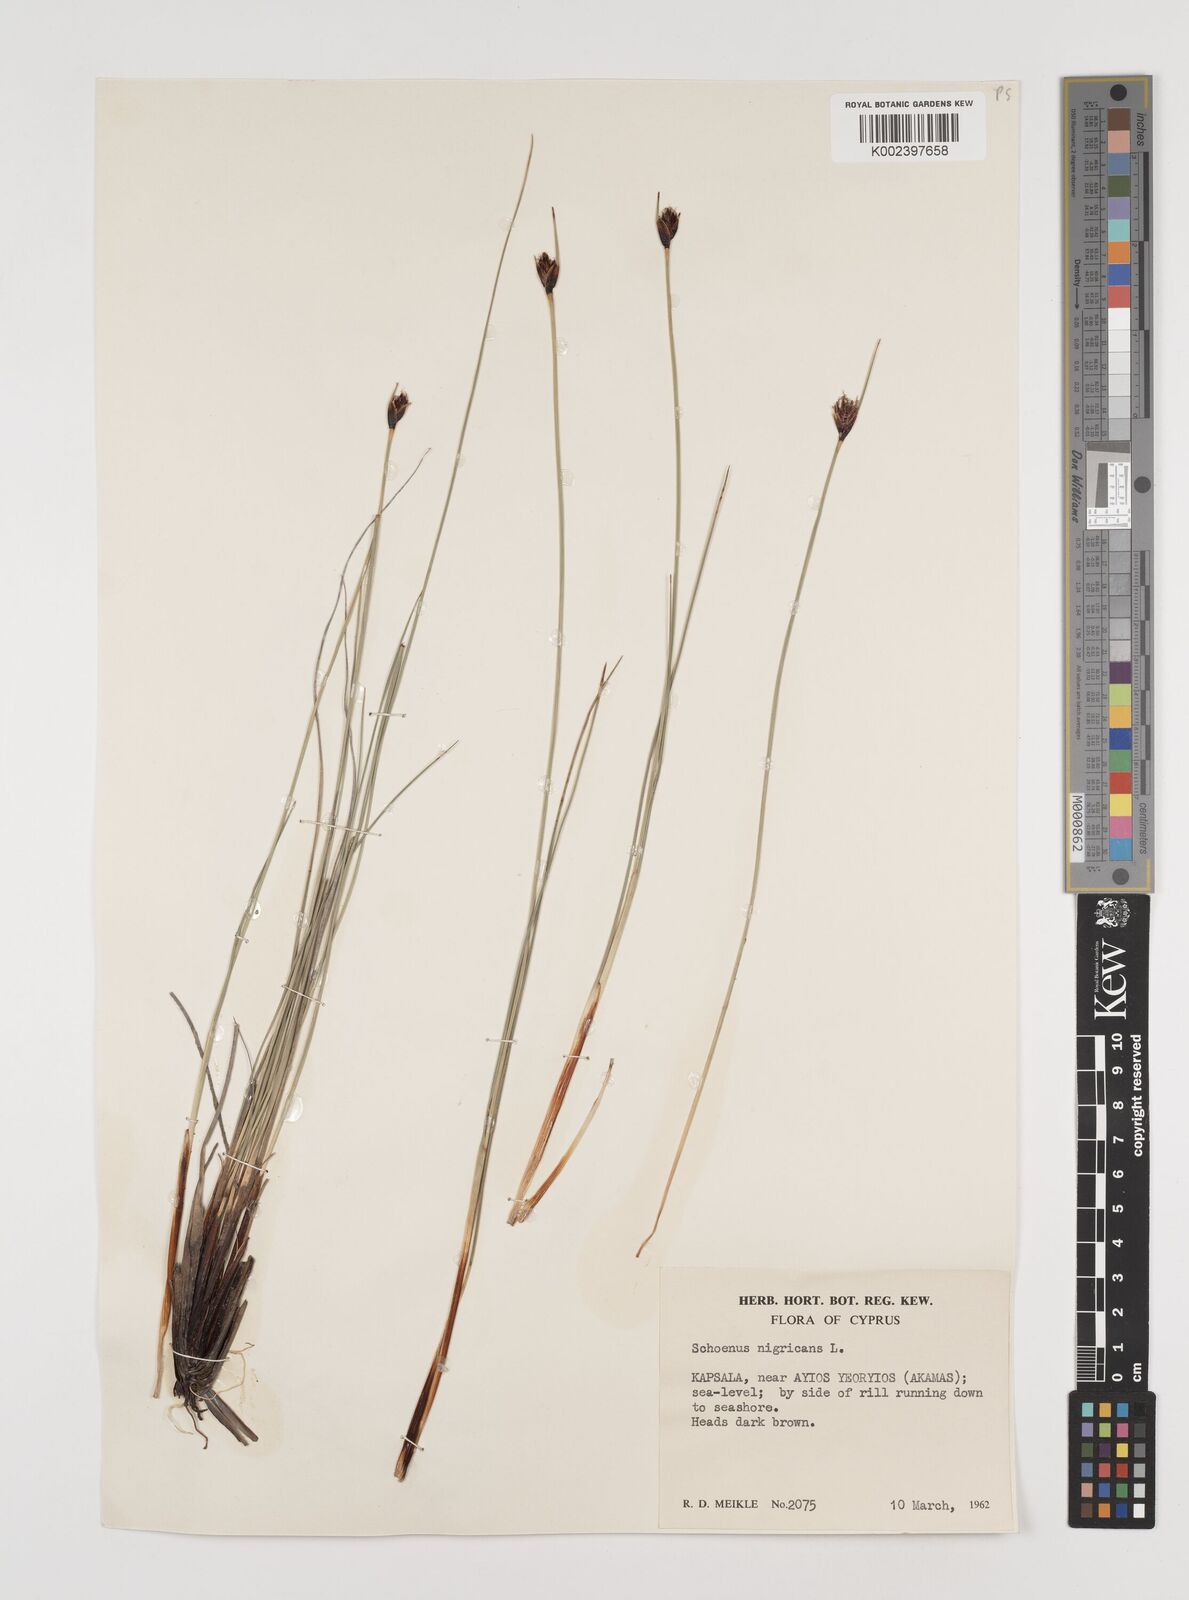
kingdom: Plantae
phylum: Tracheophyta
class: Liliopsida
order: Poales
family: Cyperaceae
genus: Schoenus
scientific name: Schoenus nigricans
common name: Black bog-rush
